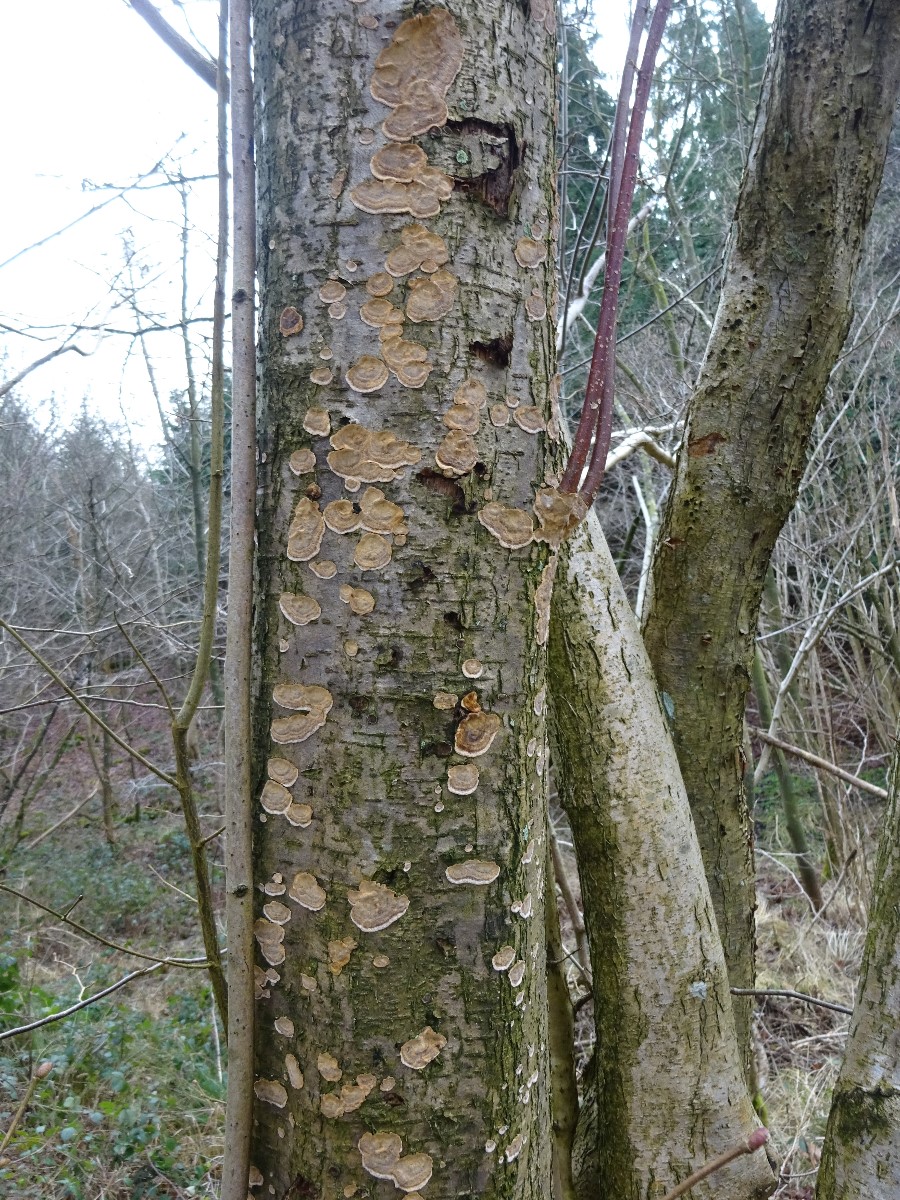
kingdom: Fungi
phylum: Basidiomycota
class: Agaricomycetes
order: Russulales
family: Stereaceae
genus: Stereum
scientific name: Stereum rugosum
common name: rynket lædersvamp
